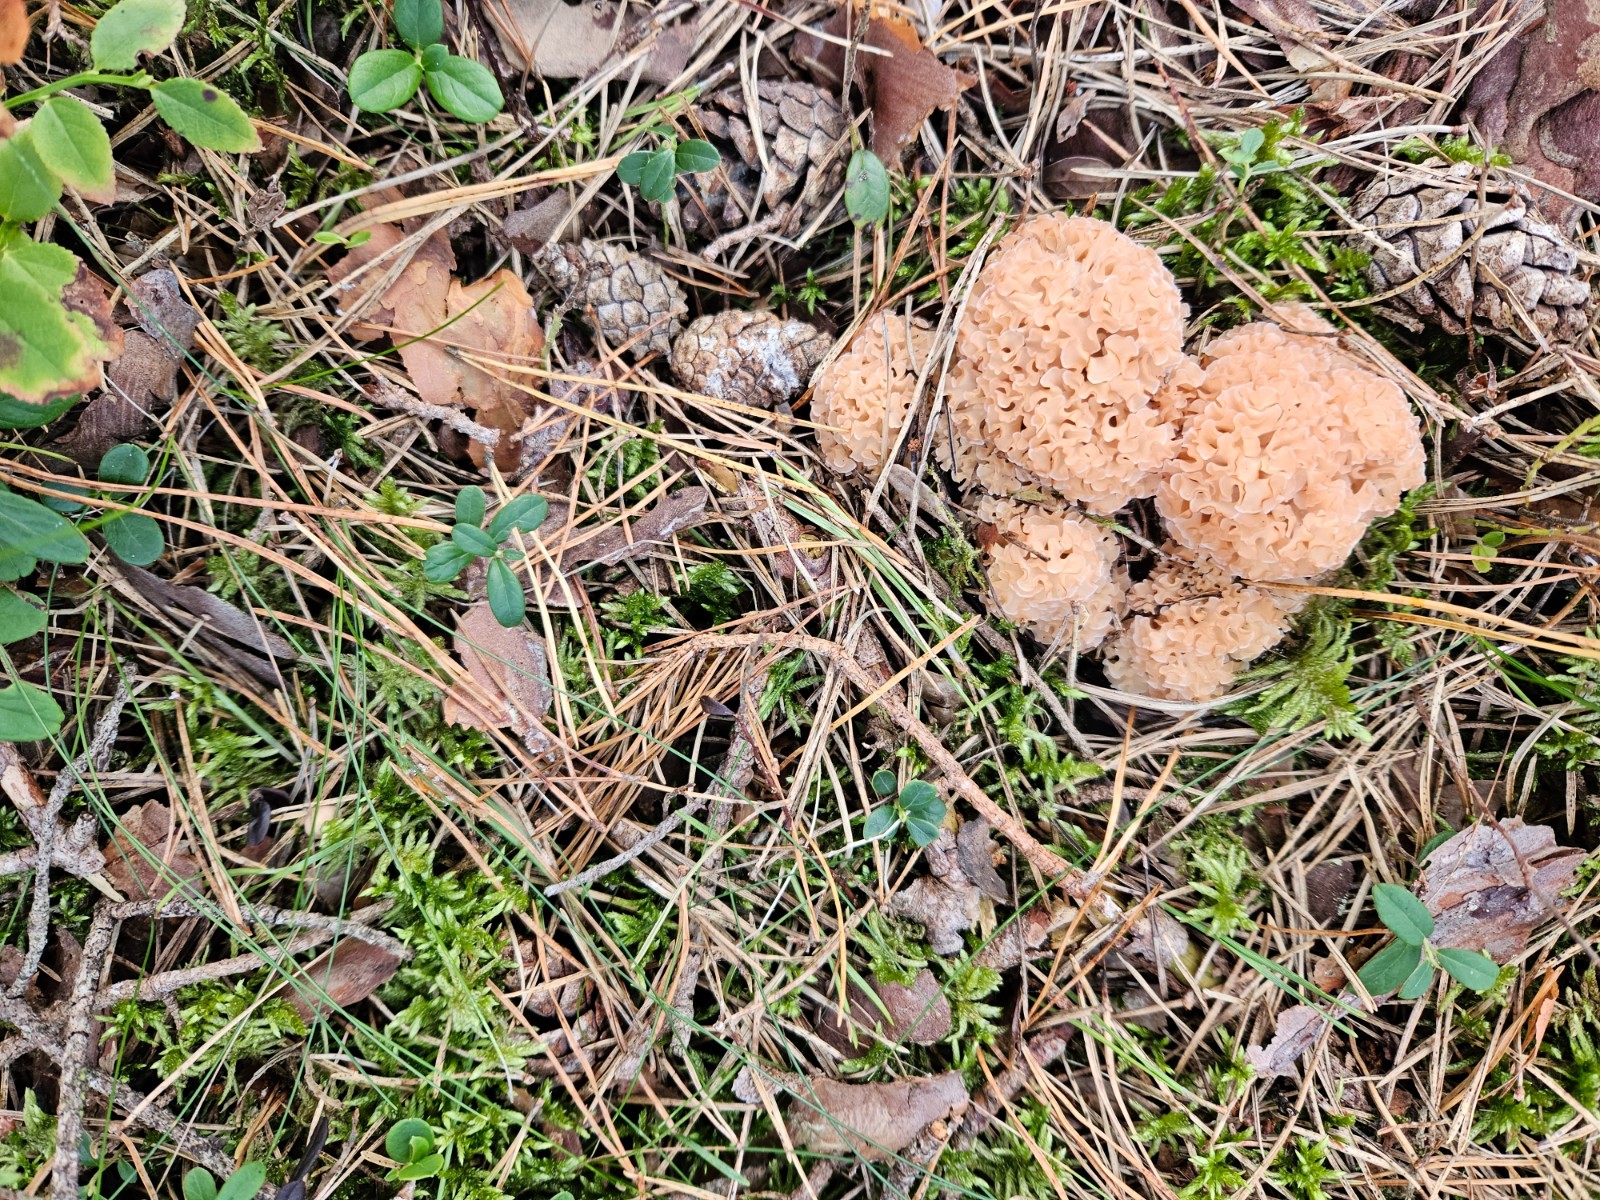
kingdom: Fungi
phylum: Basidiomycota
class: Agaricomycetes
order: Polyporales
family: Sparassidaceae
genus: Sparassis
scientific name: Sparassis crispa
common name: kruset blomkålssvamp
